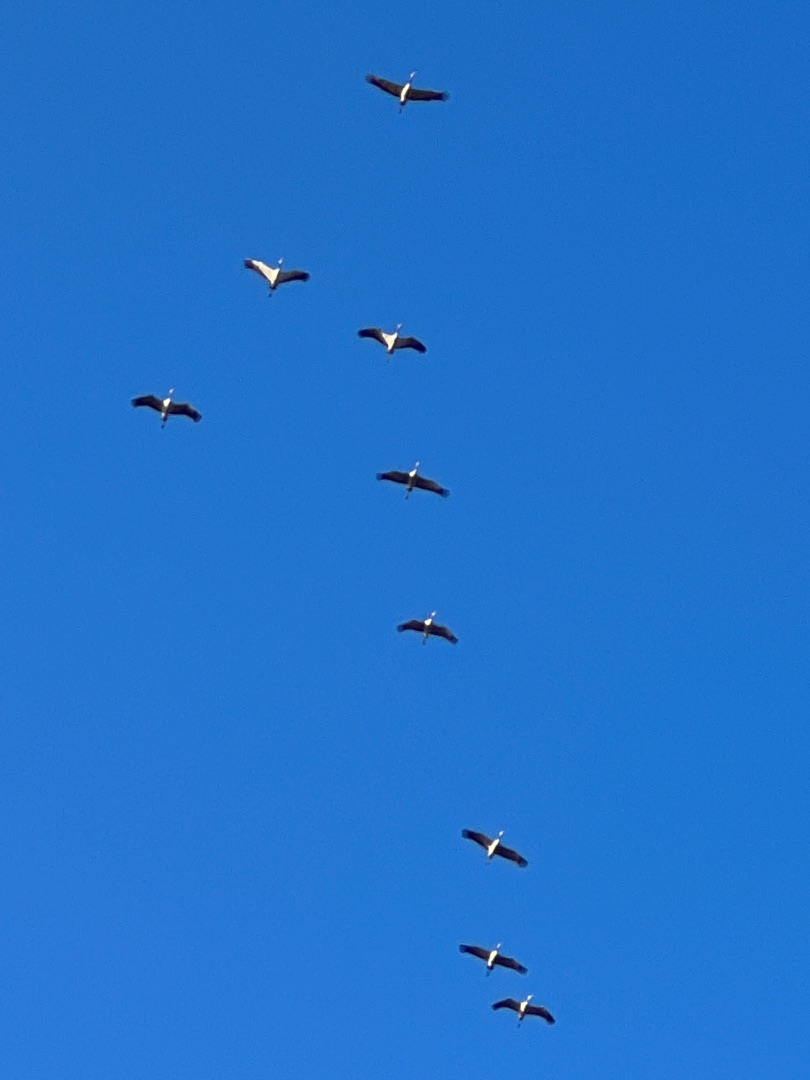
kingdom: Animalia
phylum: Chordata
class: Aves
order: Gruiformes
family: Gruidae
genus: Grus
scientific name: Grus grus
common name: Trane
